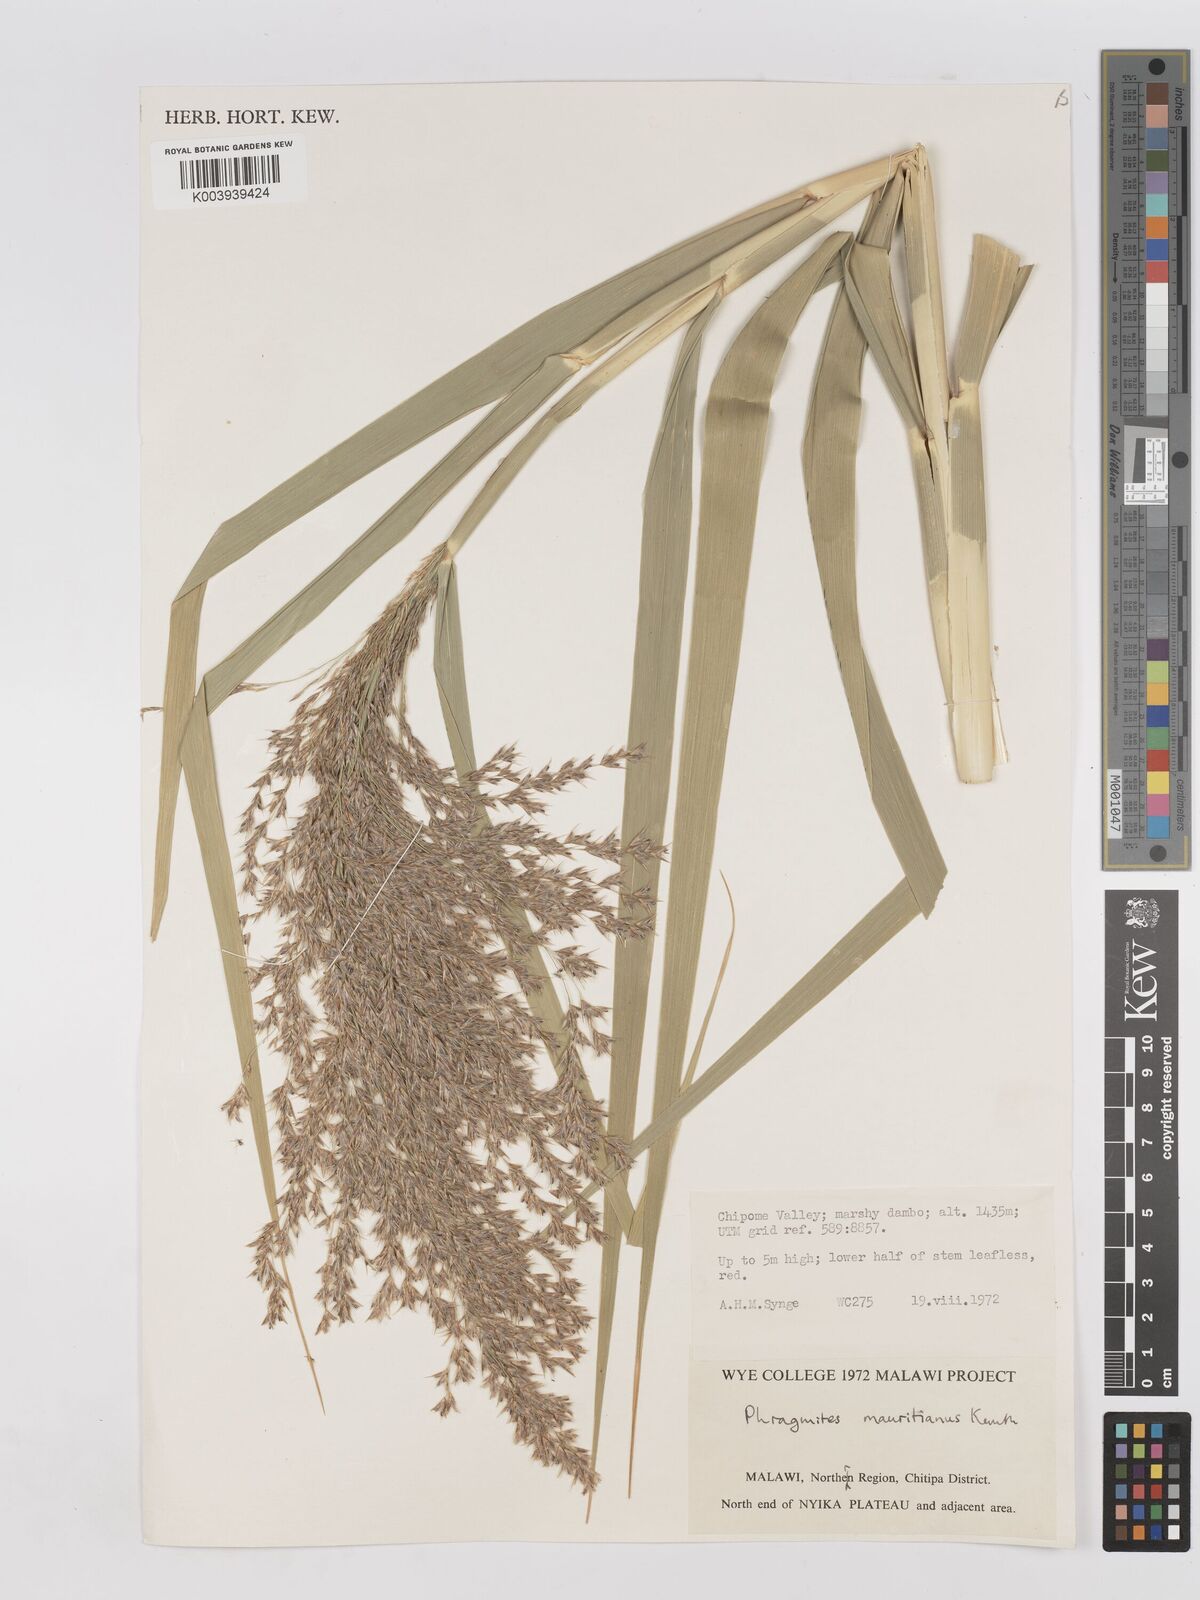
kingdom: Plantae
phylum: Tracheophyta
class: Liliopsida
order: Poales
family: Poaceae
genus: Phragmites
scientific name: Phragmites mauritianus
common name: Reed grass
